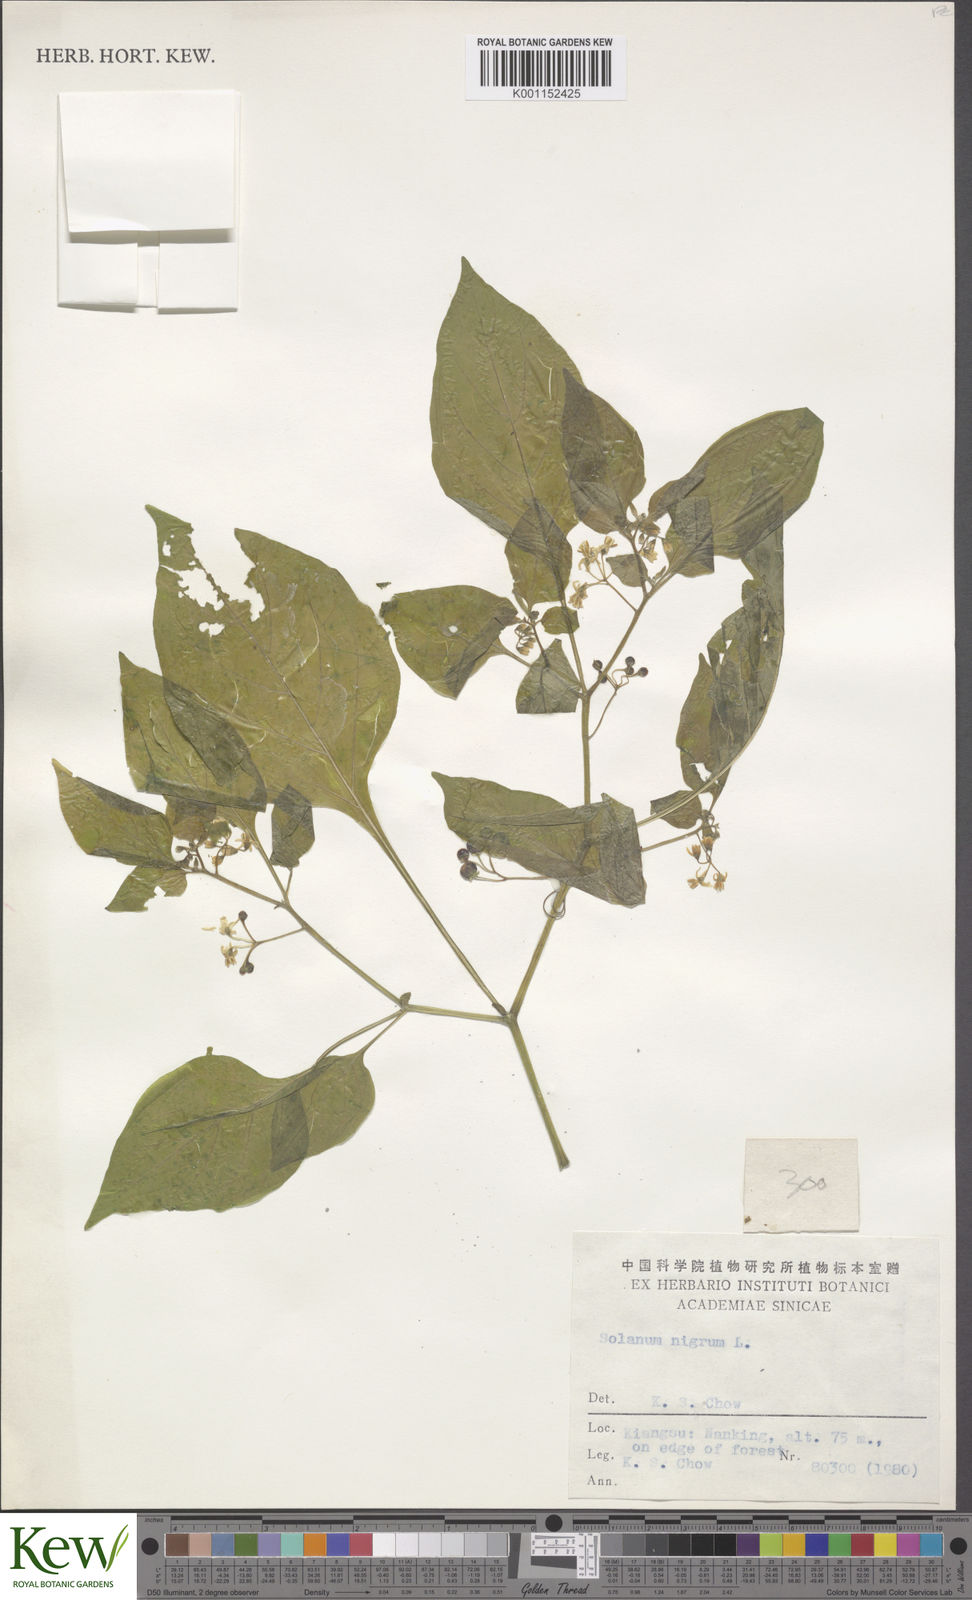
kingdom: Plantae
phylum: Tracheophyta
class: Magnoliopsida
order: Solanales
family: Solanaceae
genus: Solanum
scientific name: Solanum scabrum
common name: Garden-huckleberry
